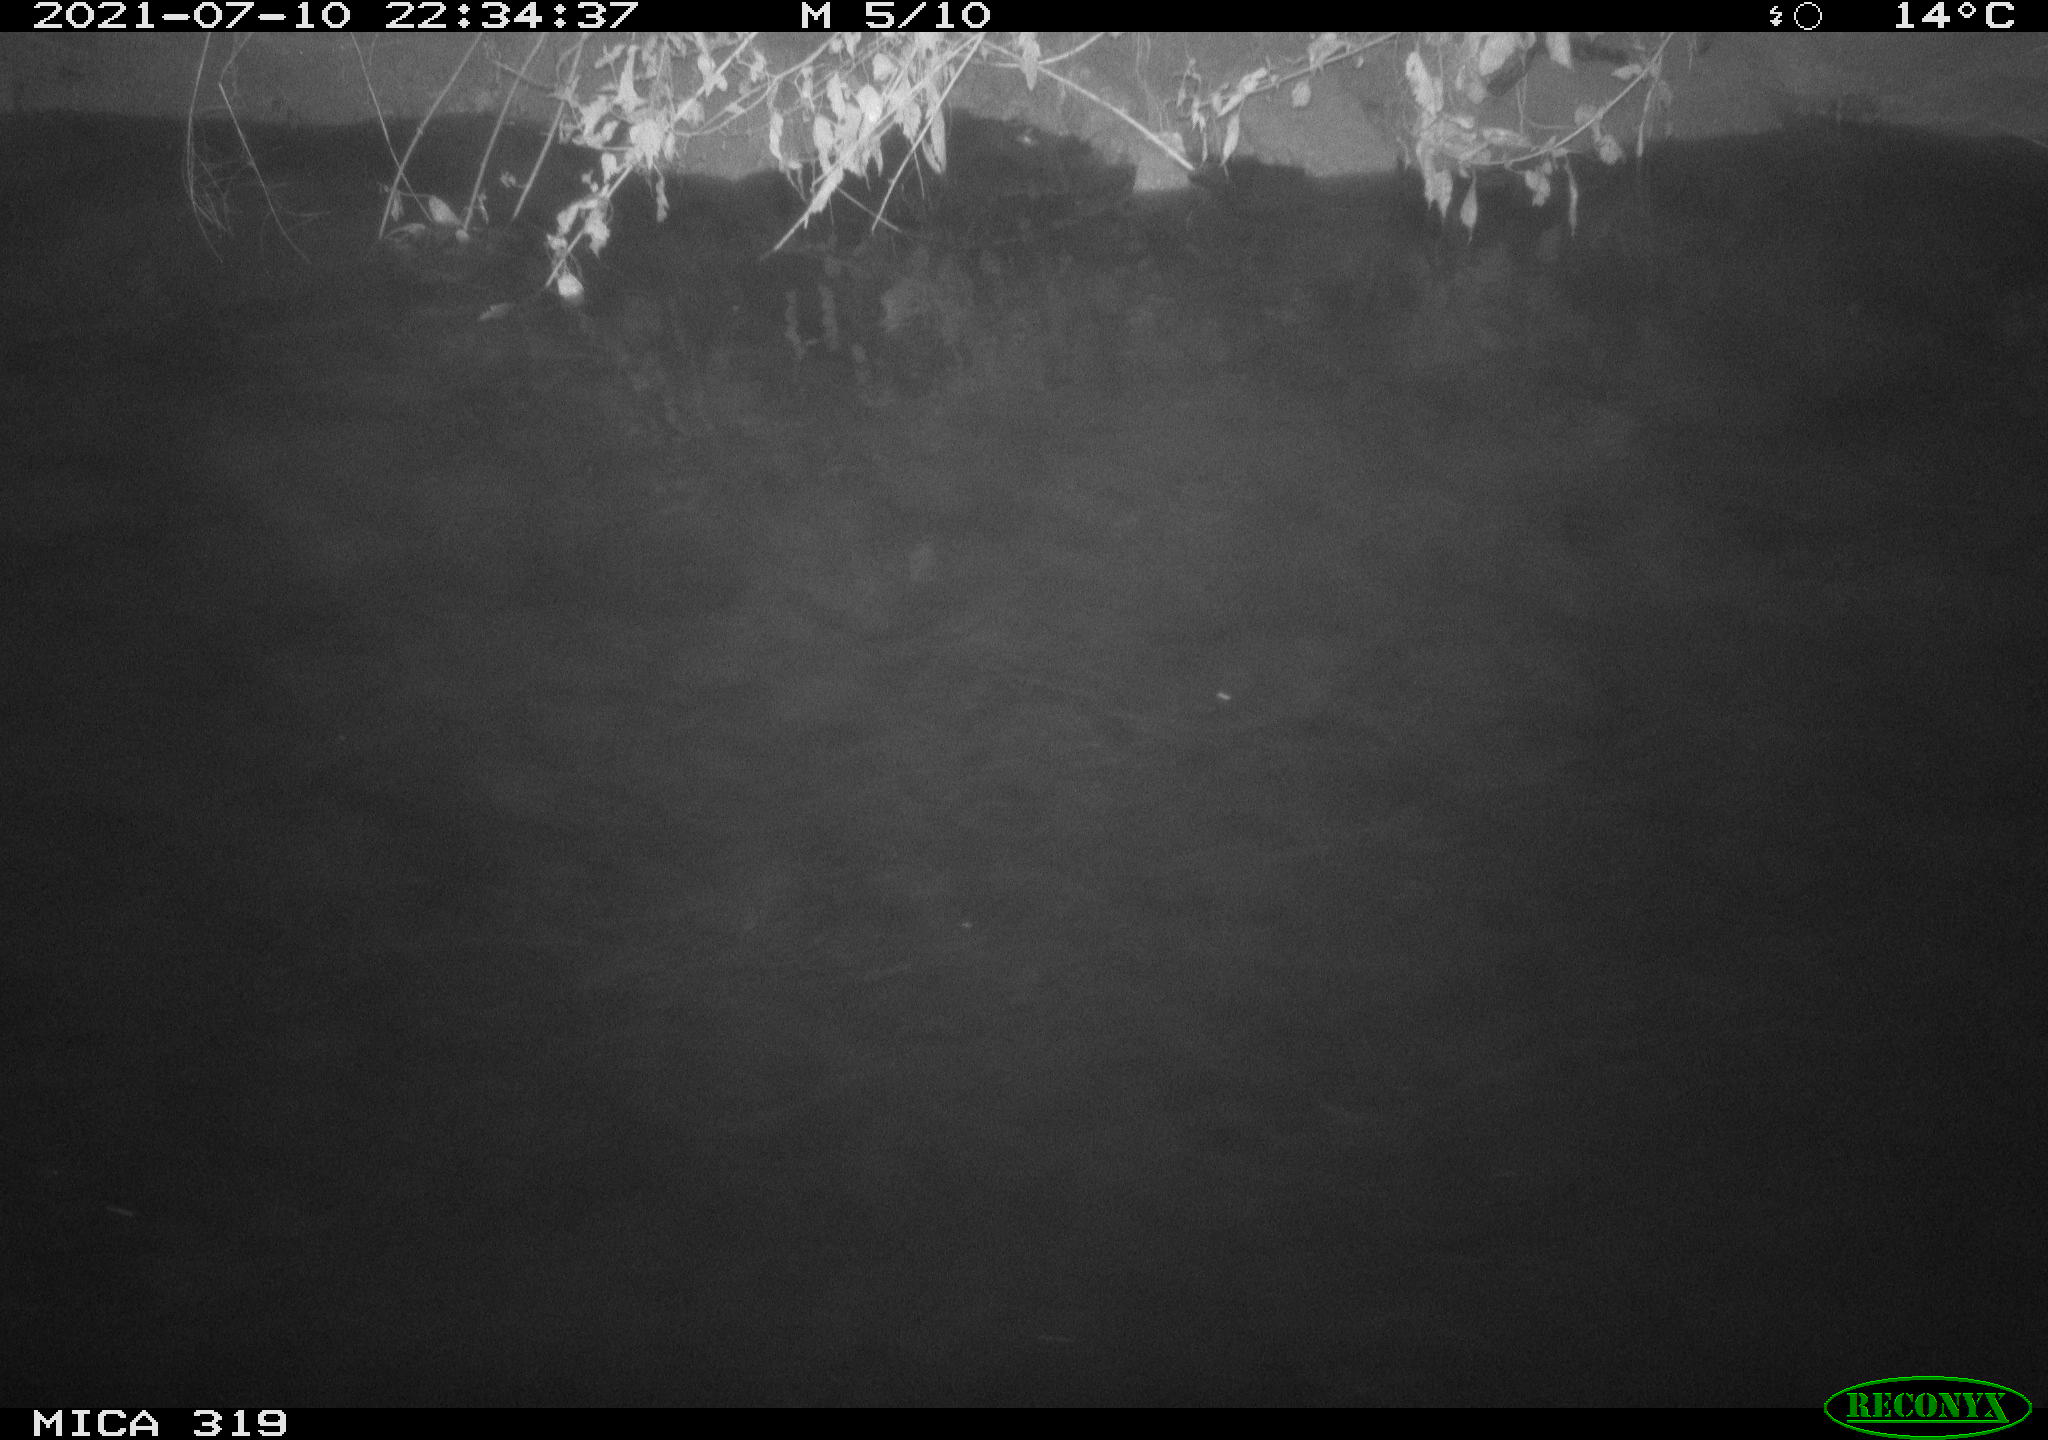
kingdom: Animalia
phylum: Chordata
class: Aves
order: Anseriformes
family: Anatidae
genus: Anas
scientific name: Anas platyrhynchos
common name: Mallard
